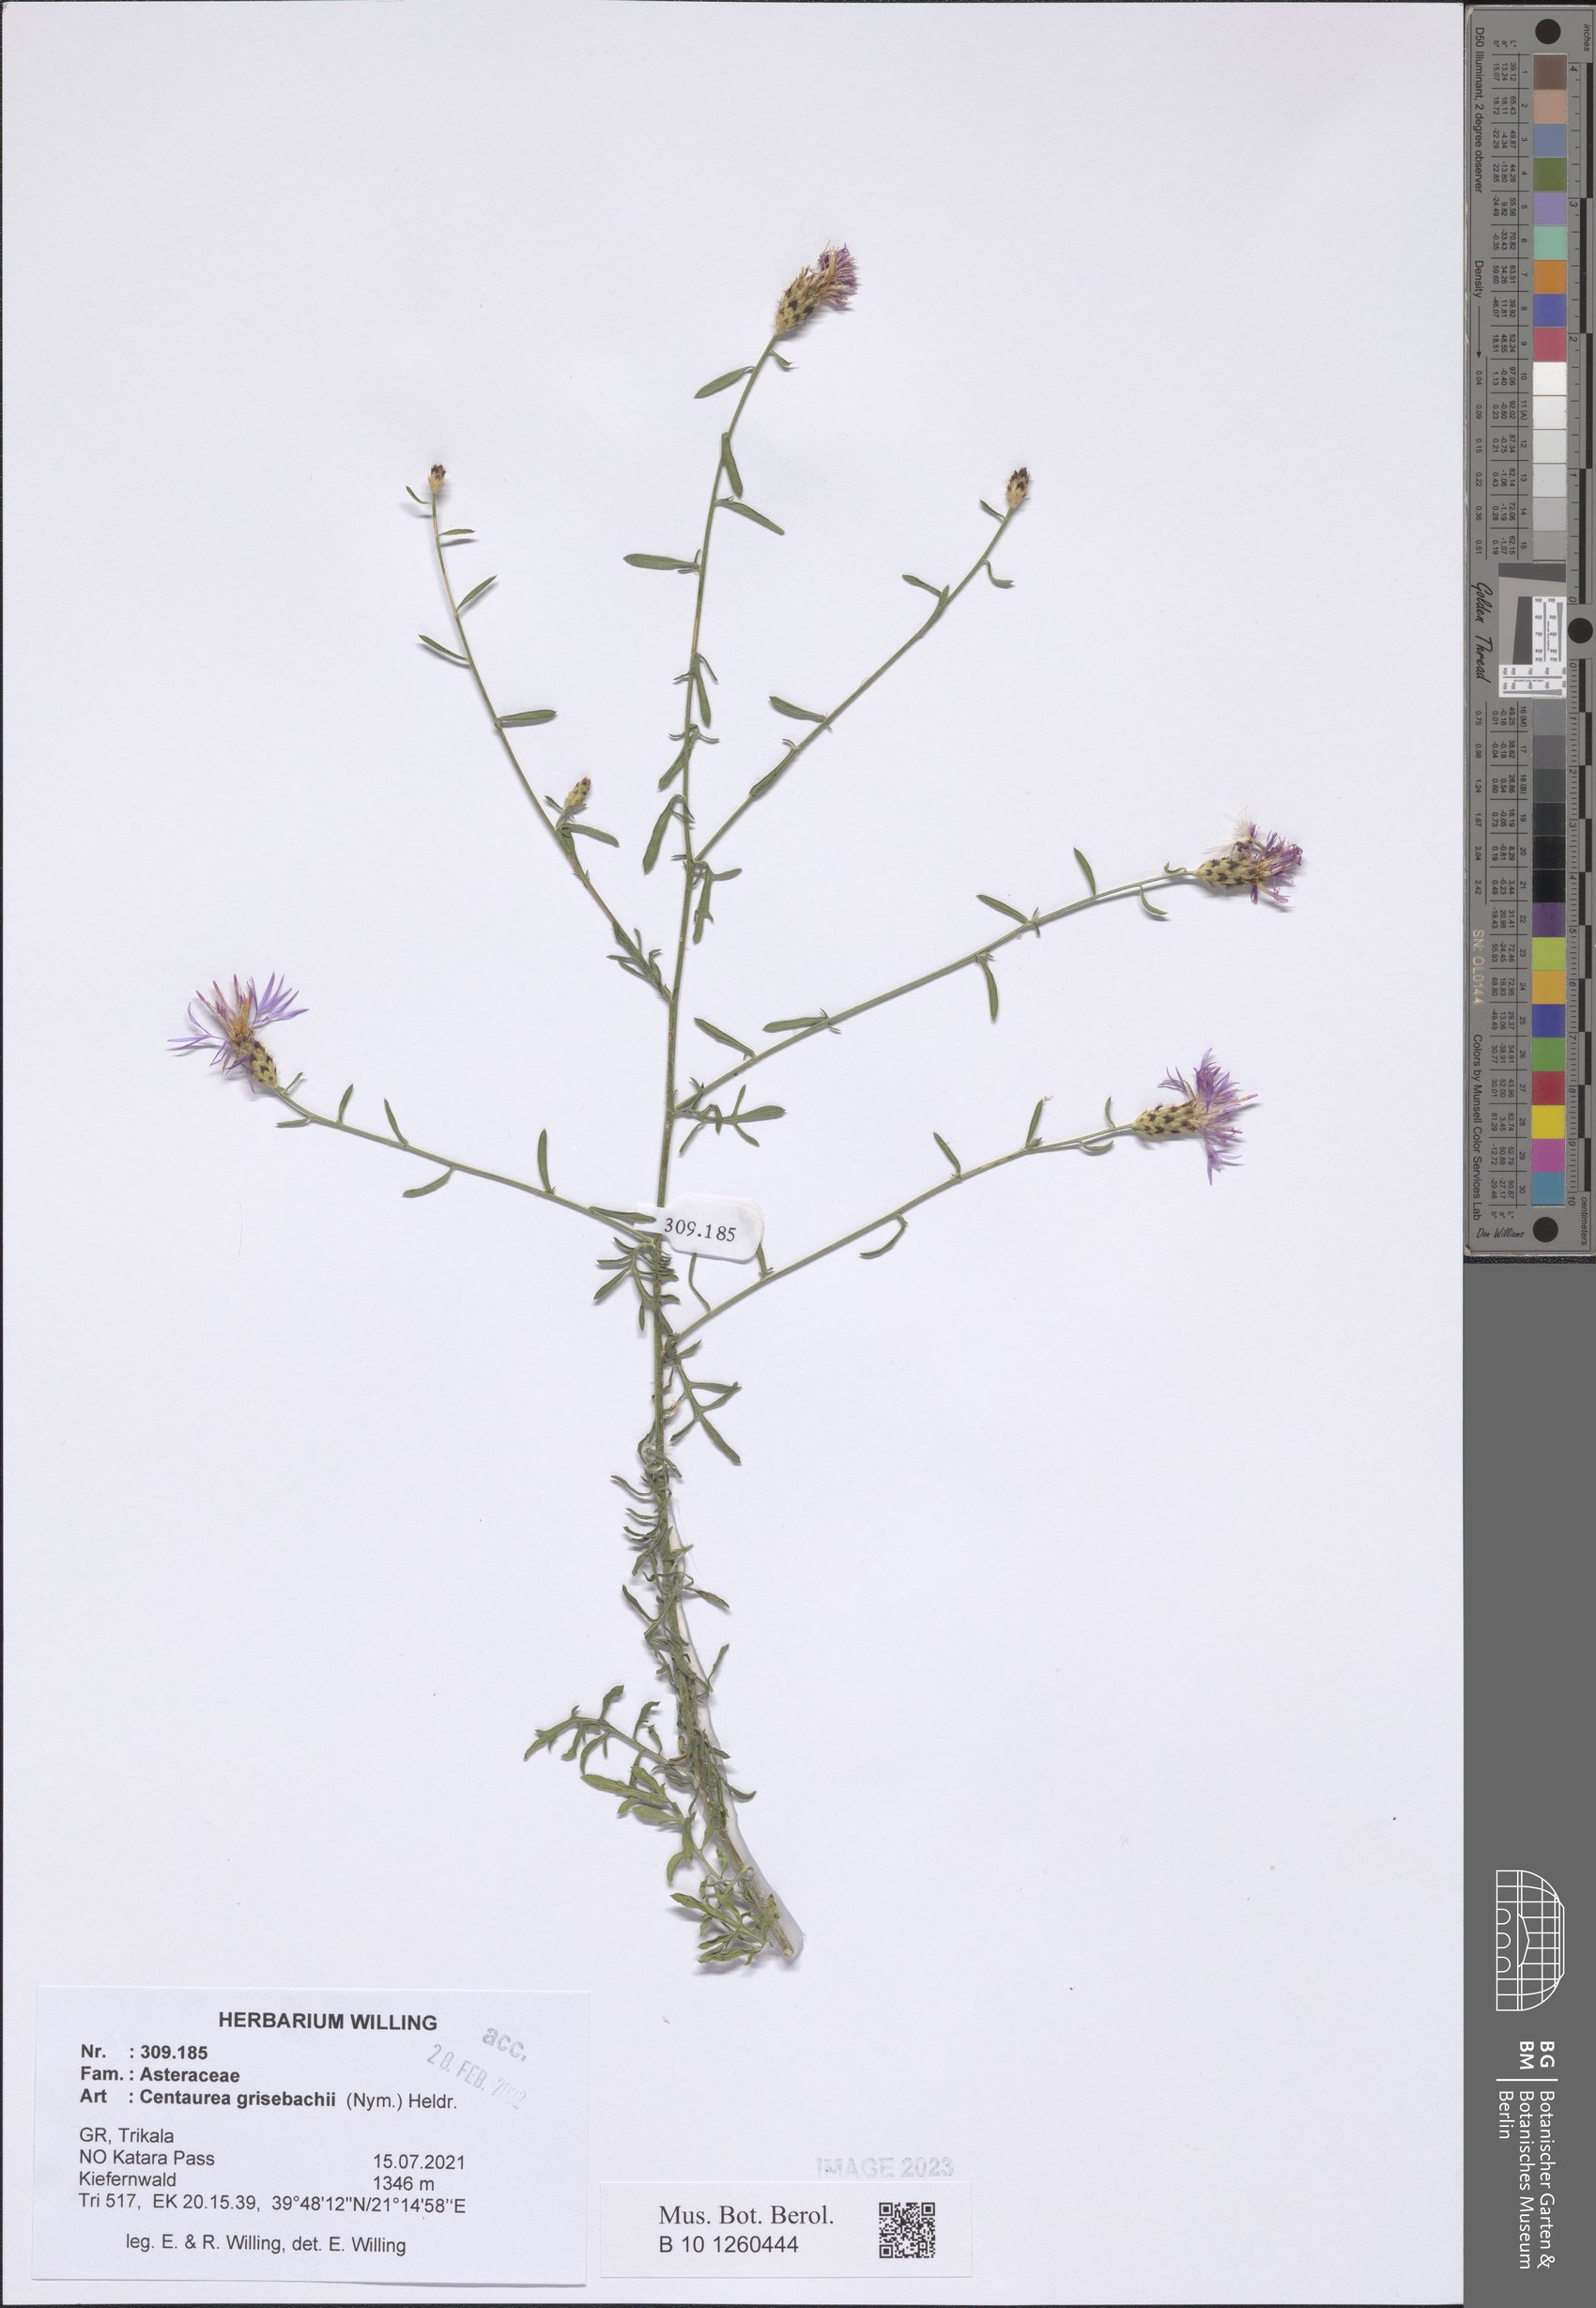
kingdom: Plantae
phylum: Tracheophyta
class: Magnoliopsida
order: Asterales
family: Asteraceae
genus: Centaurea
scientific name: Centaurea grisebachii
